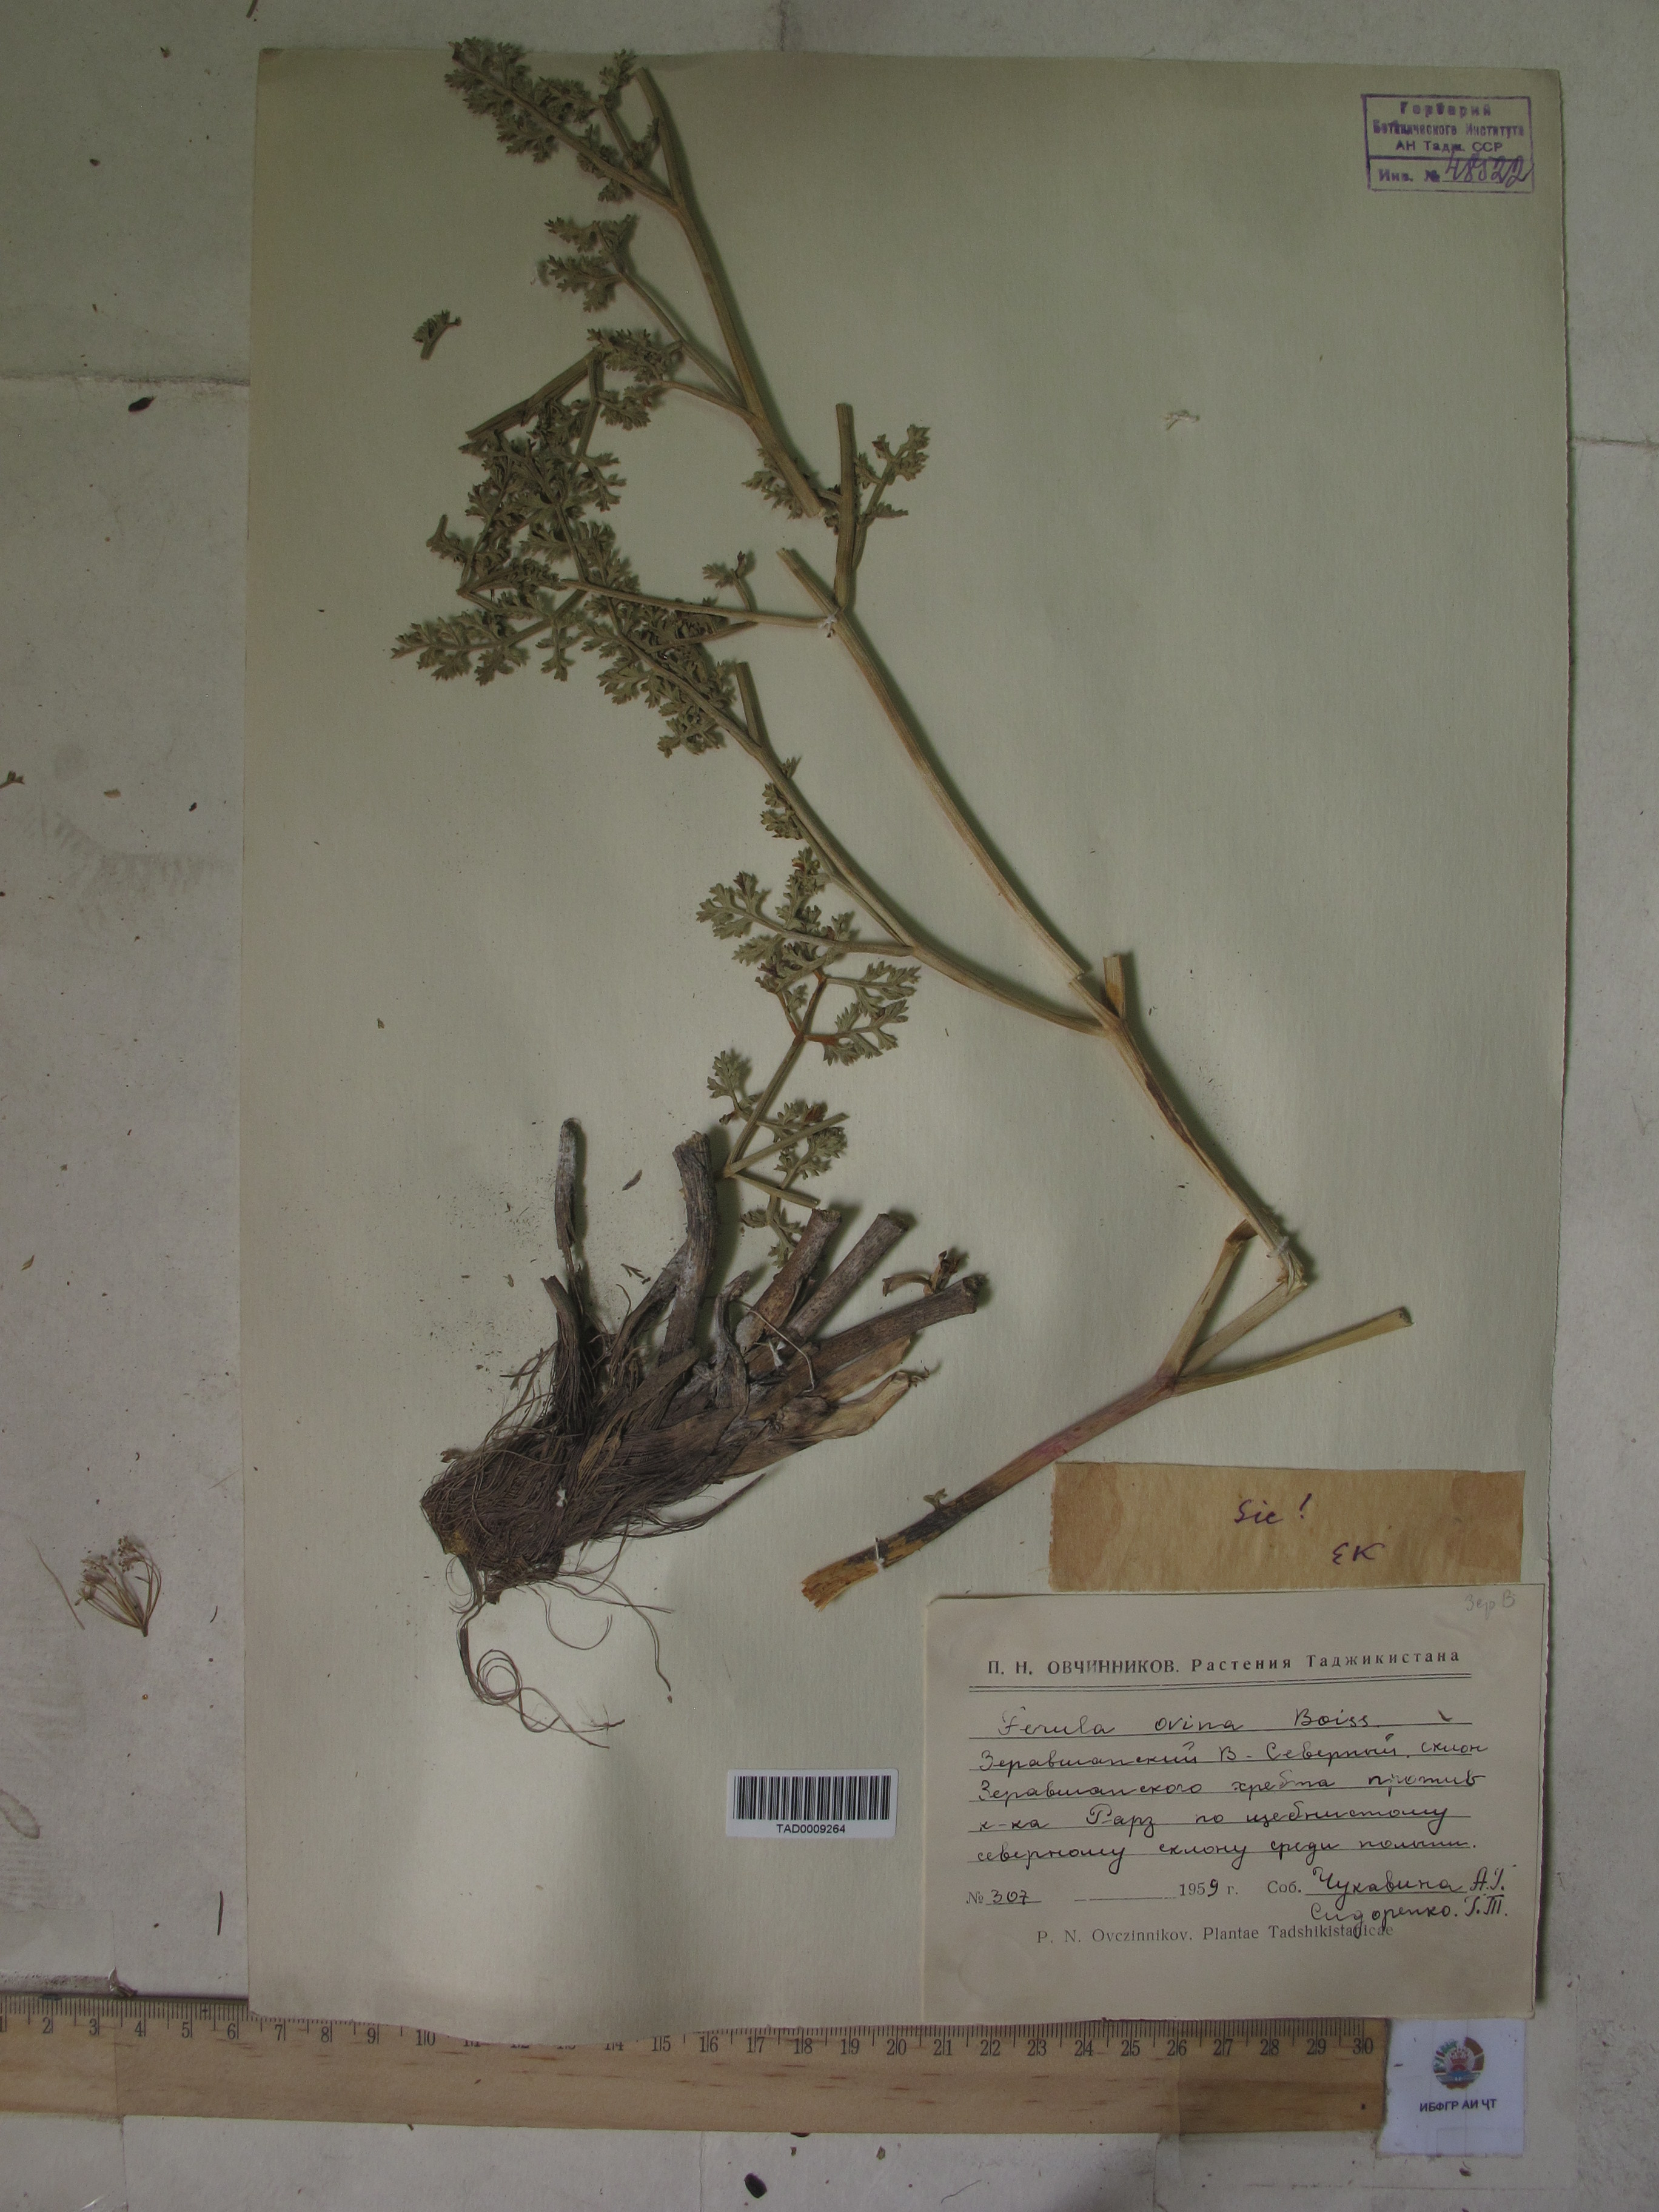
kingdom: Plantae
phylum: Tracheophyta
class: Magnoliopsida
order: Apiales
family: Apiaceae
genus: Ferula
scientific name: Ferula ovina
